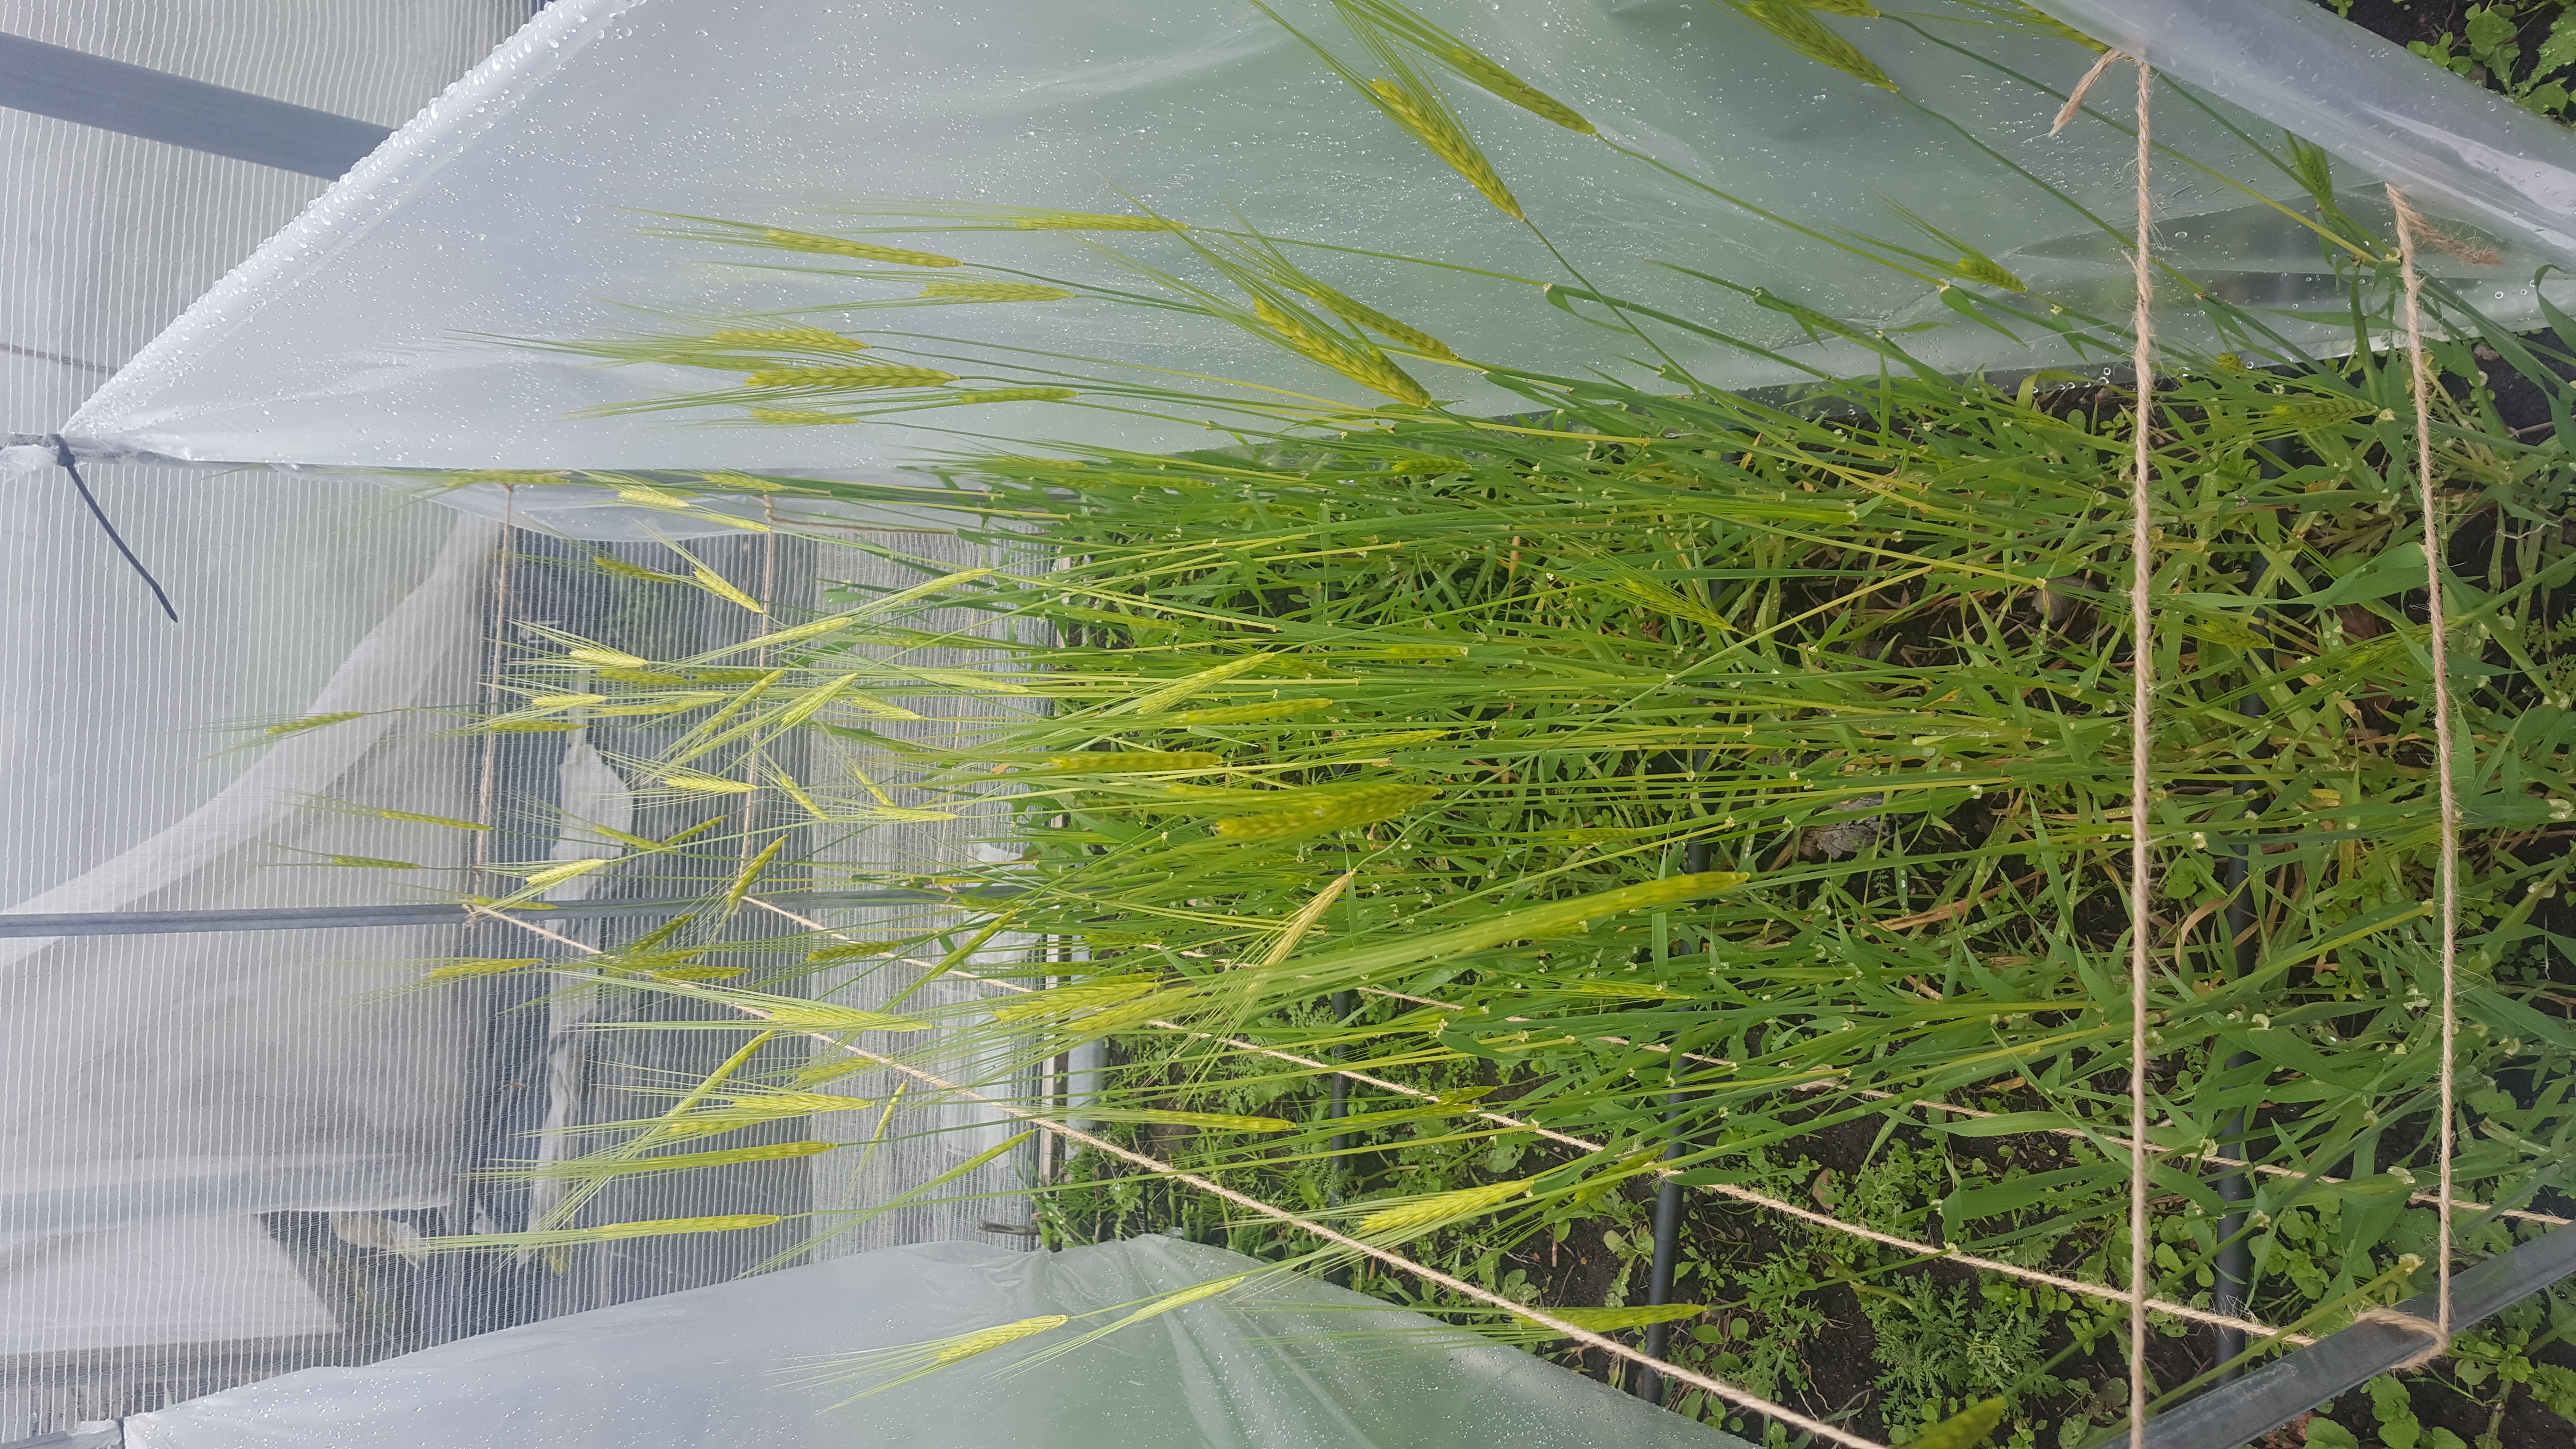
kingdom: Plantae
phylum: Tracheophyta
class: Liliopsida
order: Poales
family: Poaceae
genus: Hordeum
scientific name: Hordeum spontaneum
